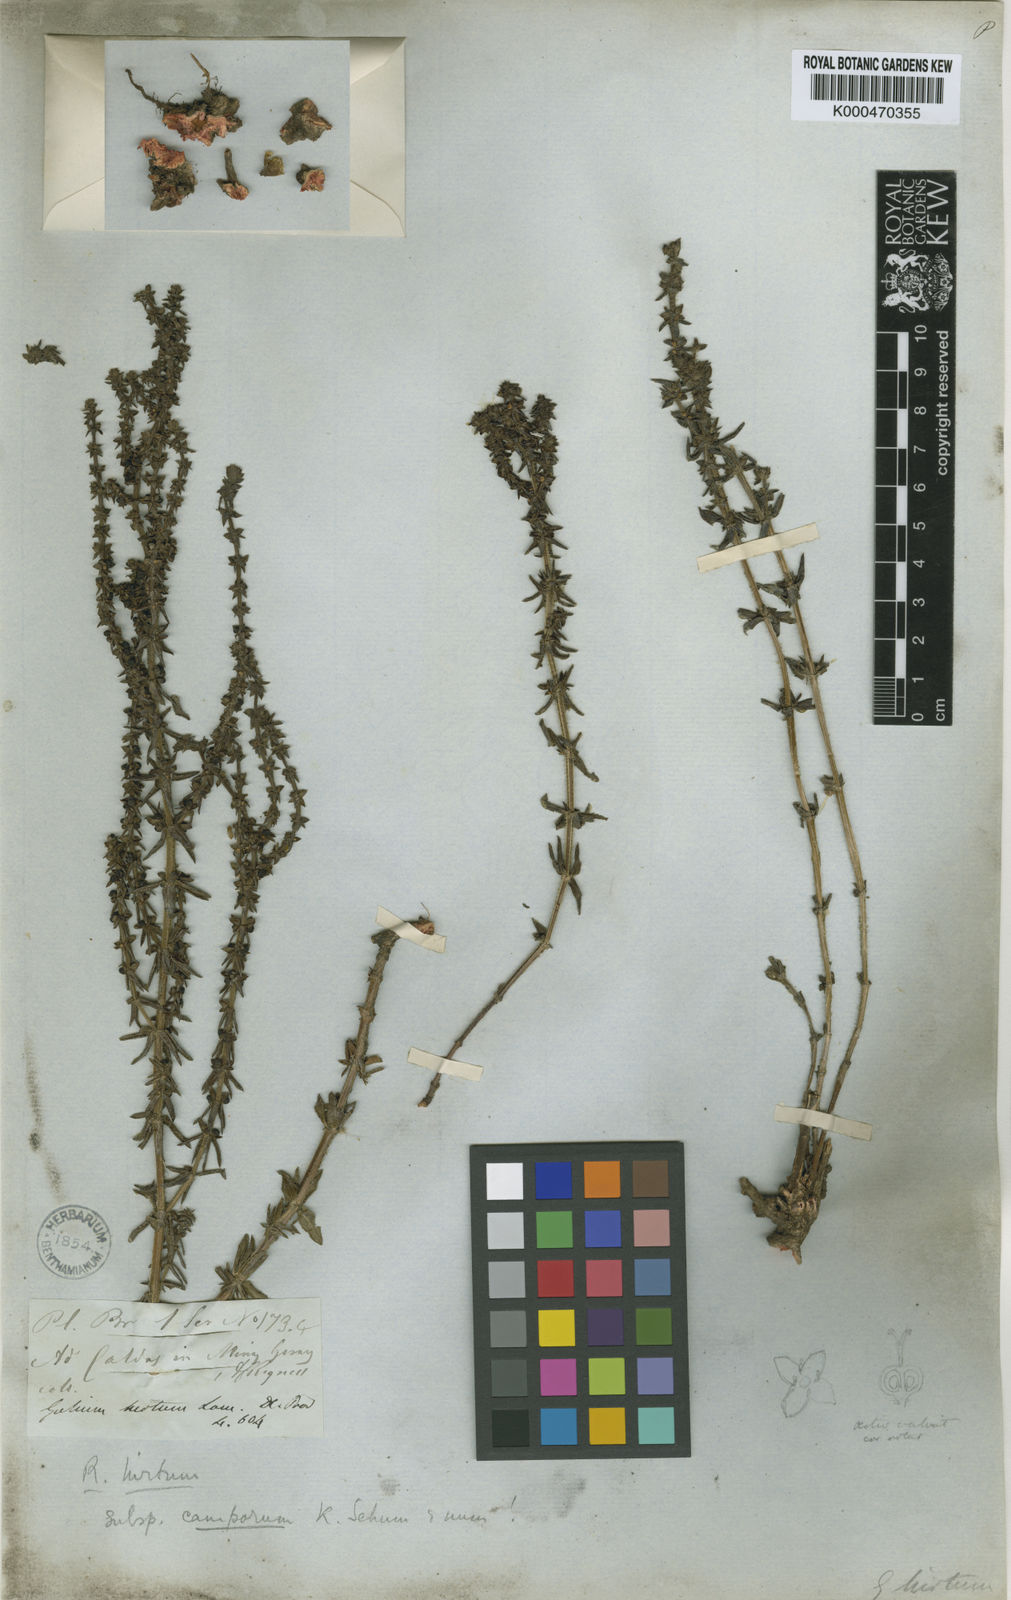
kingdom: Plantae
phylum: Tracheophyta
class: Magnoliopsida
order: Gentianales
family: Rubiaceae
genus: Galium
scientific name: Galium megapotamicum
